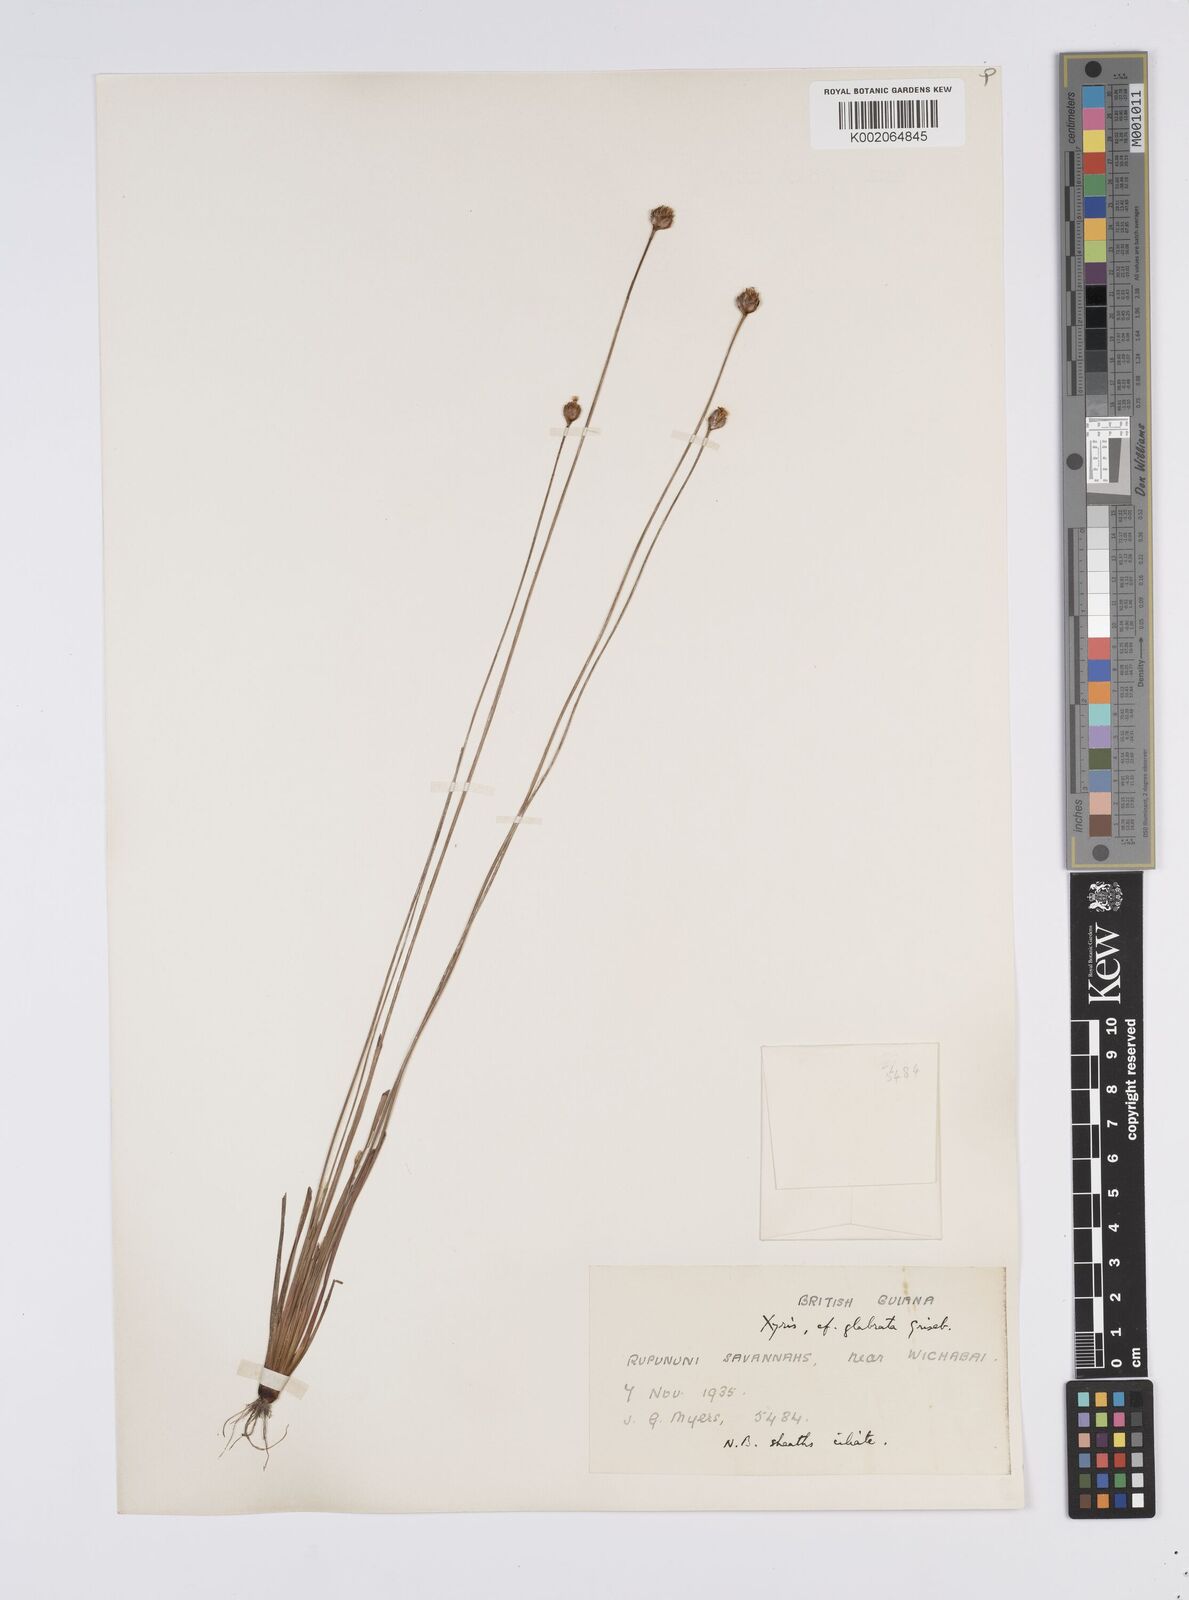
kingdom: Plantae
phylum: Tracheophyta
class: Liliopsida
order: Poales
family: Xyridaceae
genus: Xyris
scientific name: Xyris savanensis
